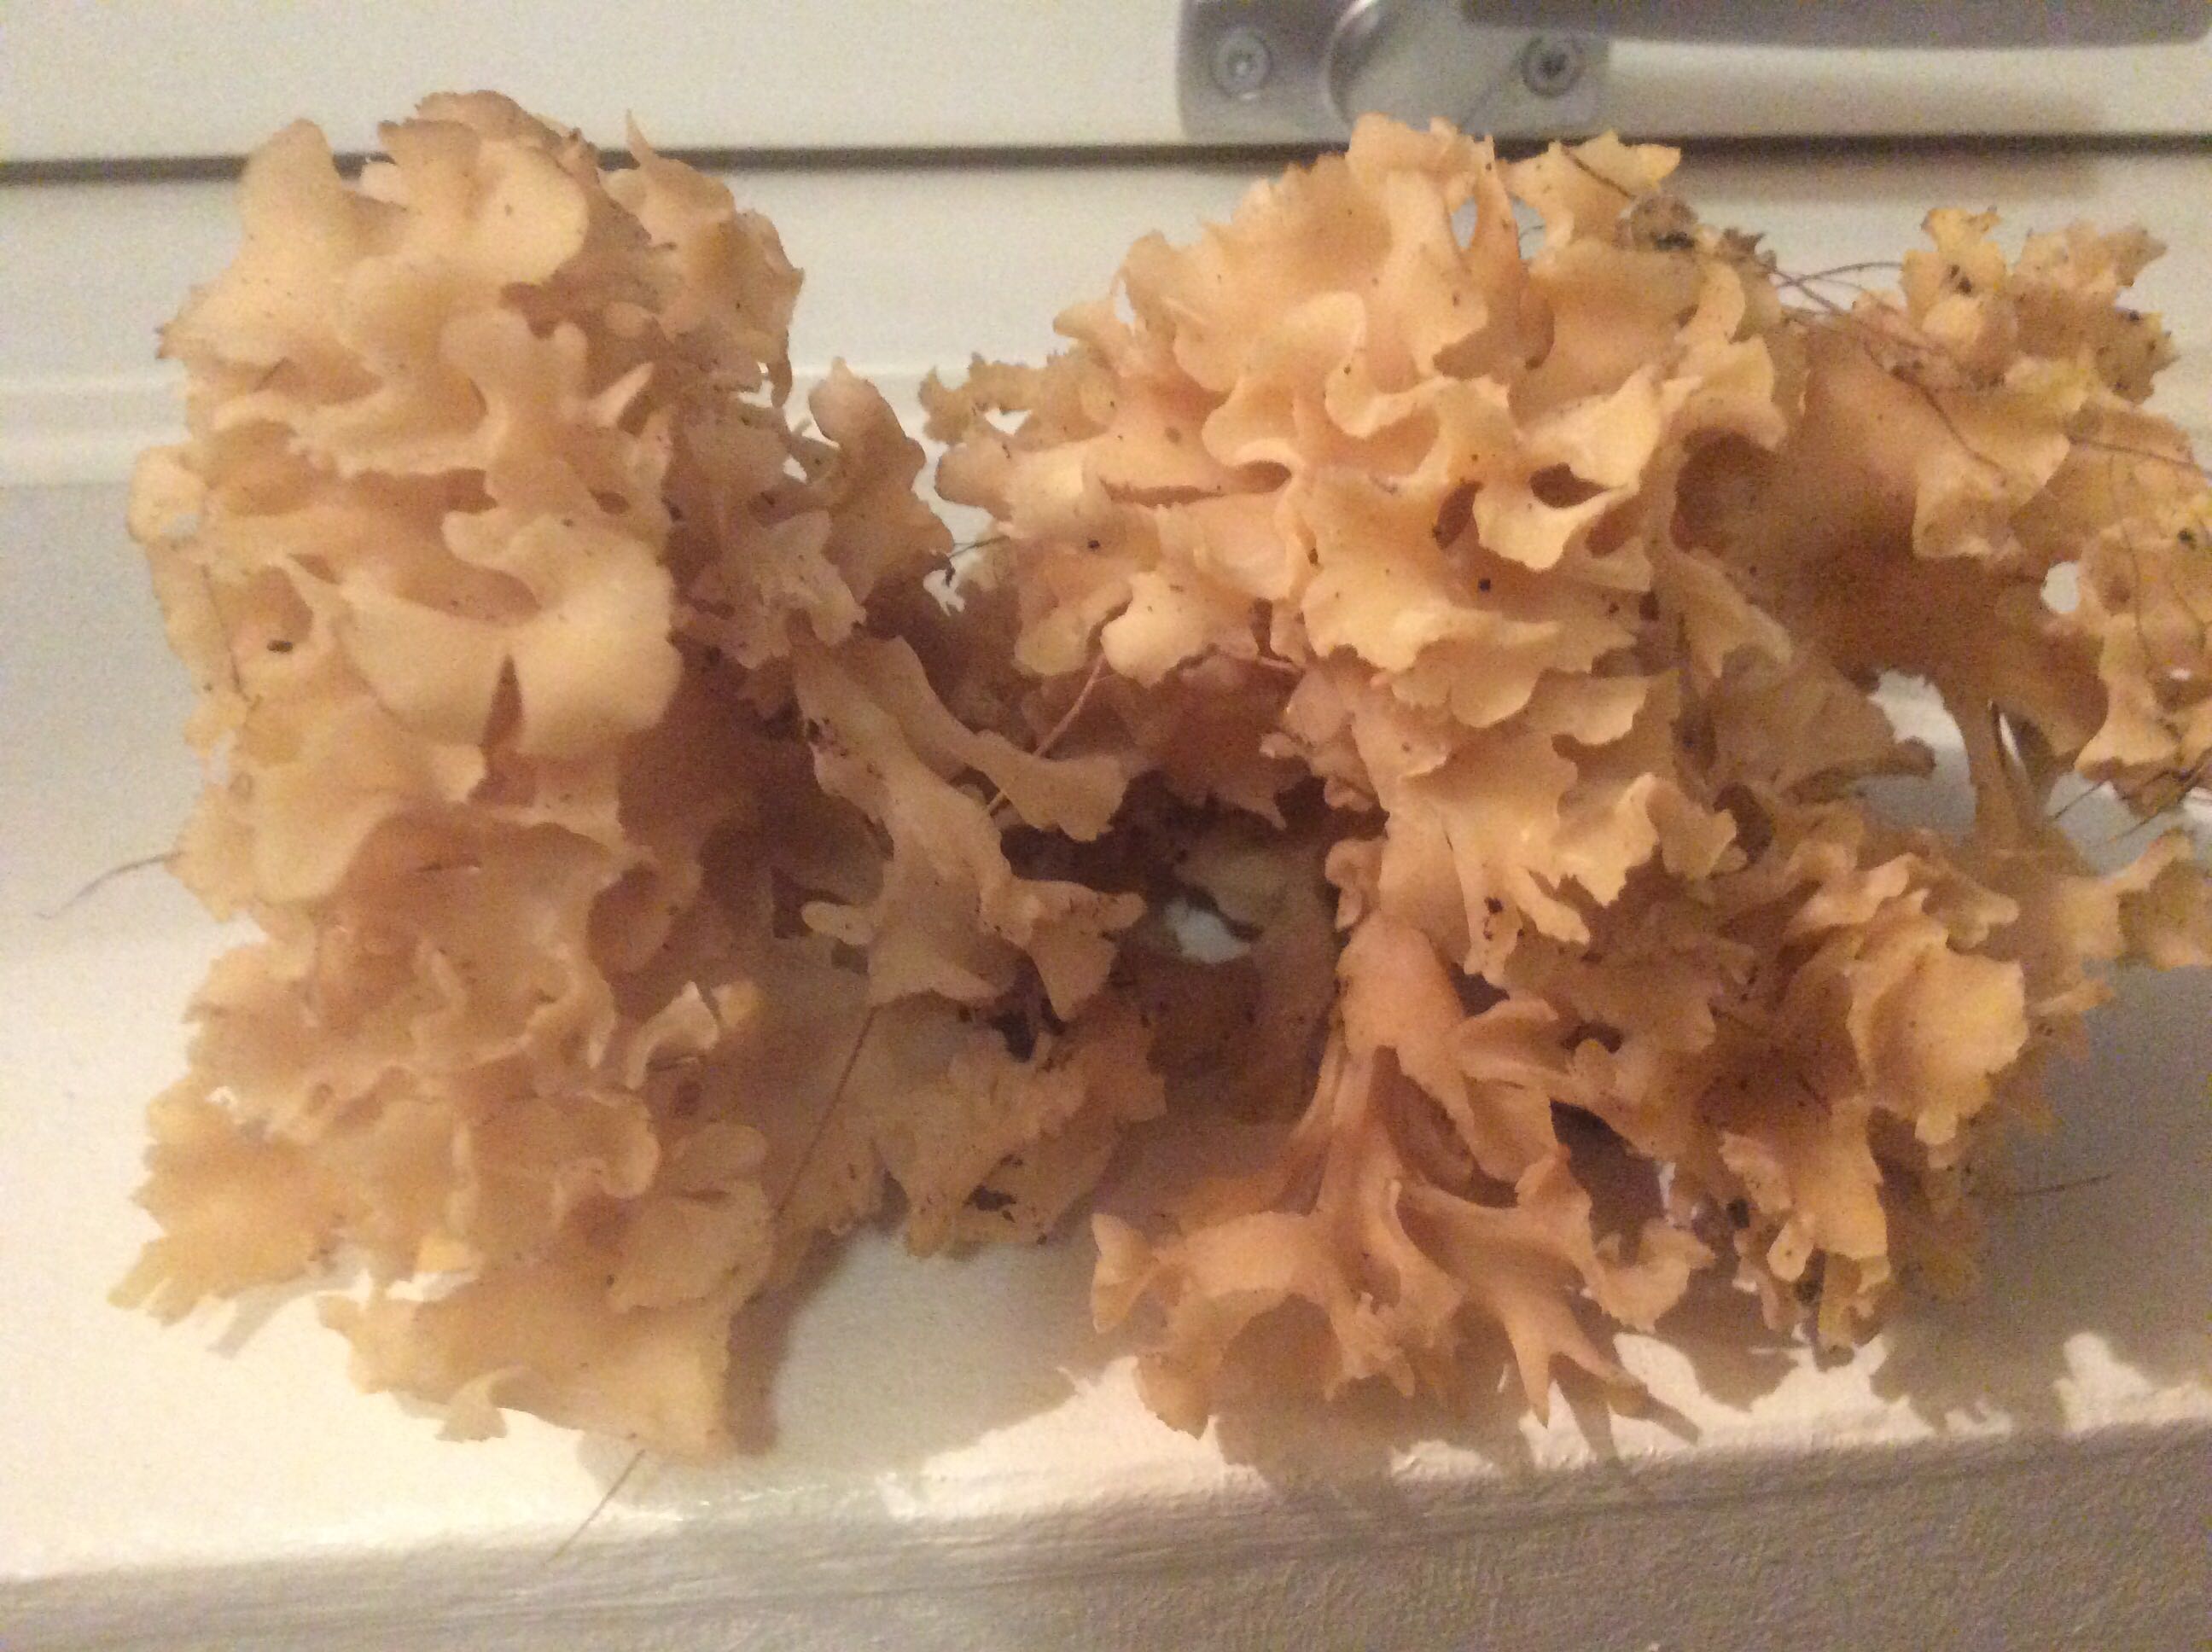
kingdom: Fungi
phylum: Basidiomycota
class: Agaricomycetes
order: Polyporales
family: Sparassidaceae
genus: Sparassis
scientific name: Sparassis crispa
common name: kruset blomkålssvamp
